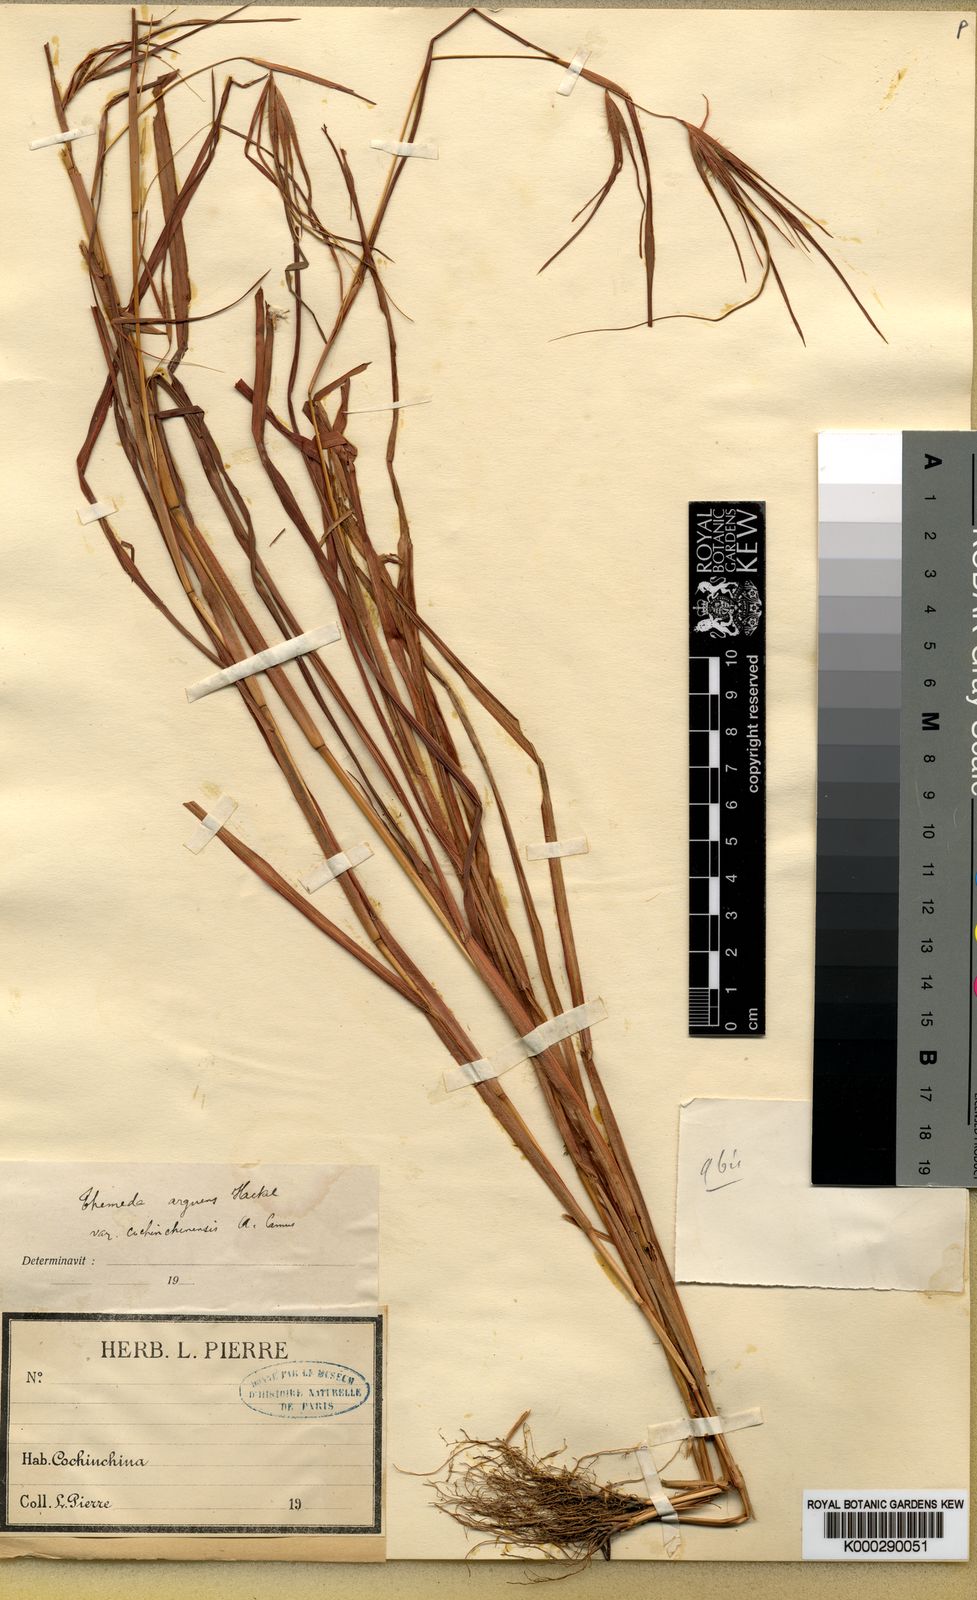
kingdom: Plantae
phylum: Tracheophyta
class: Liliopsida
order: Poales
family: Poaceae
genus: Themeda
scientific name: Themeda arguens
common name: Christmas grass
